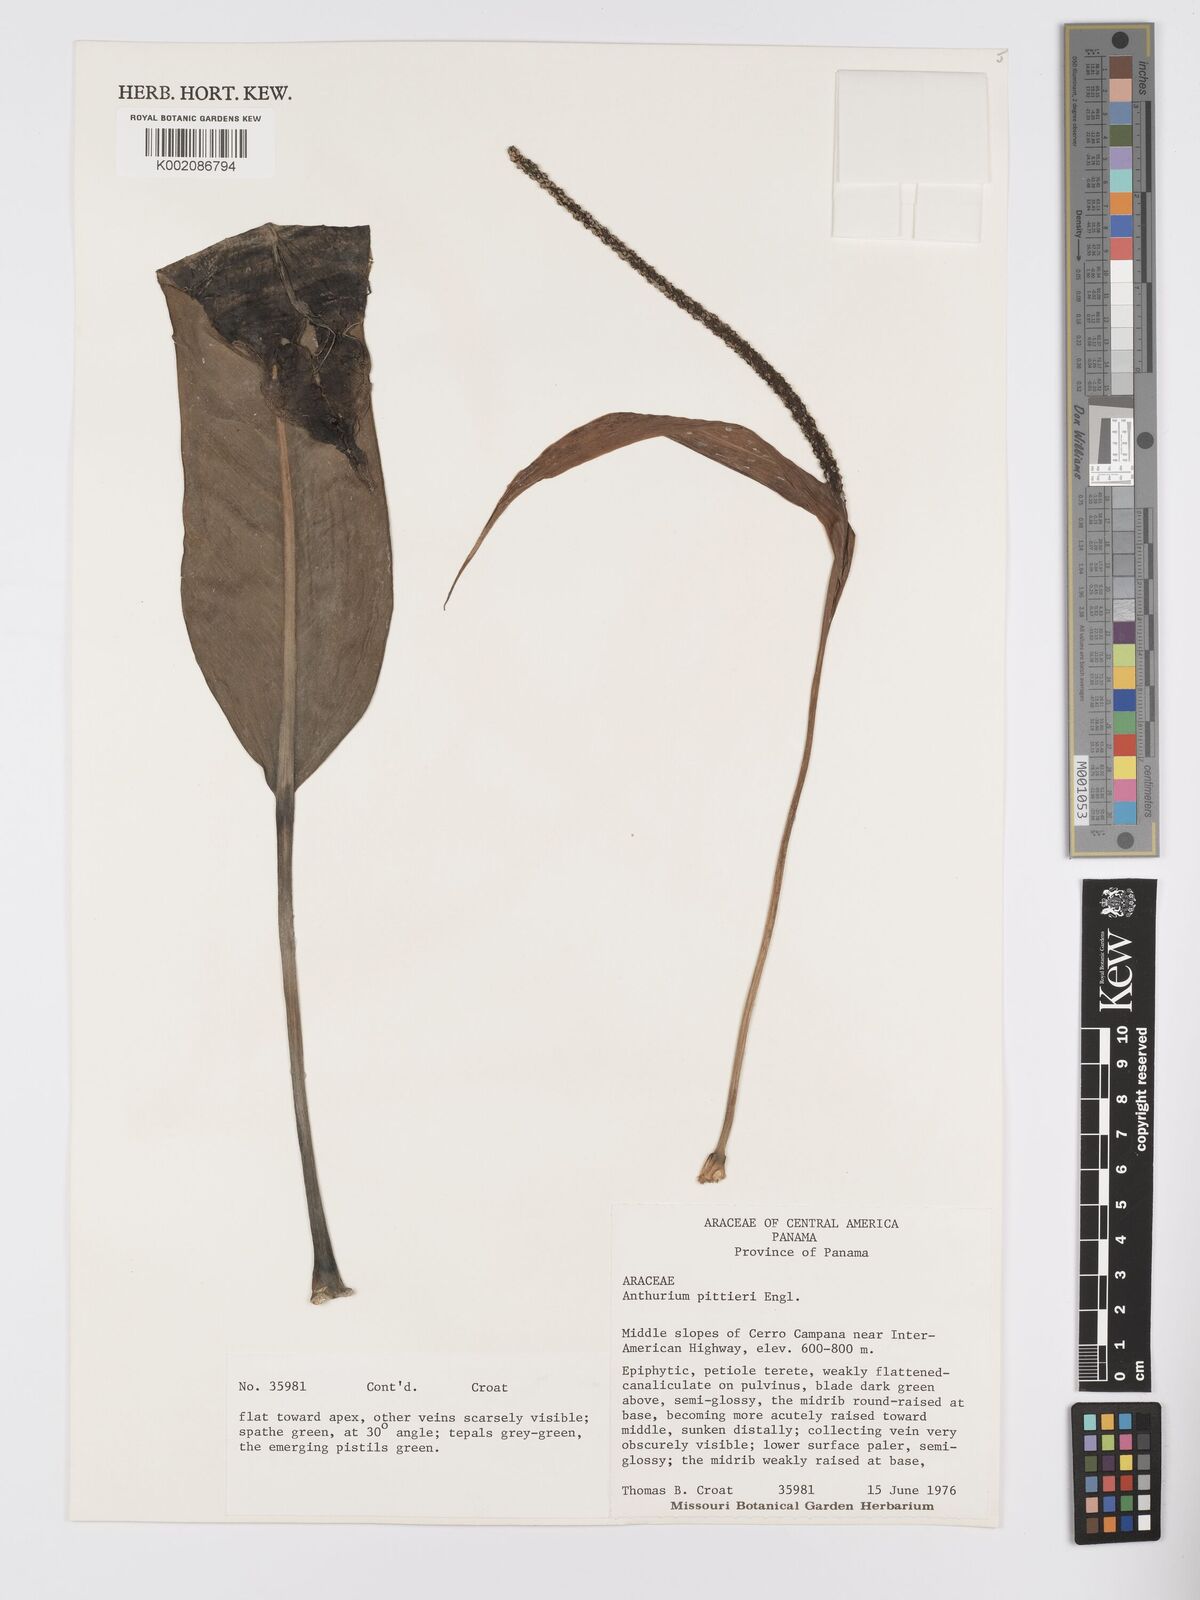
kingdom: Plantae
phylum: Tracheophyta
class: Liliopsida
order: Alismatales
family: Araceae
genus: Anthurium
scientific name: Anthurium pittieri
